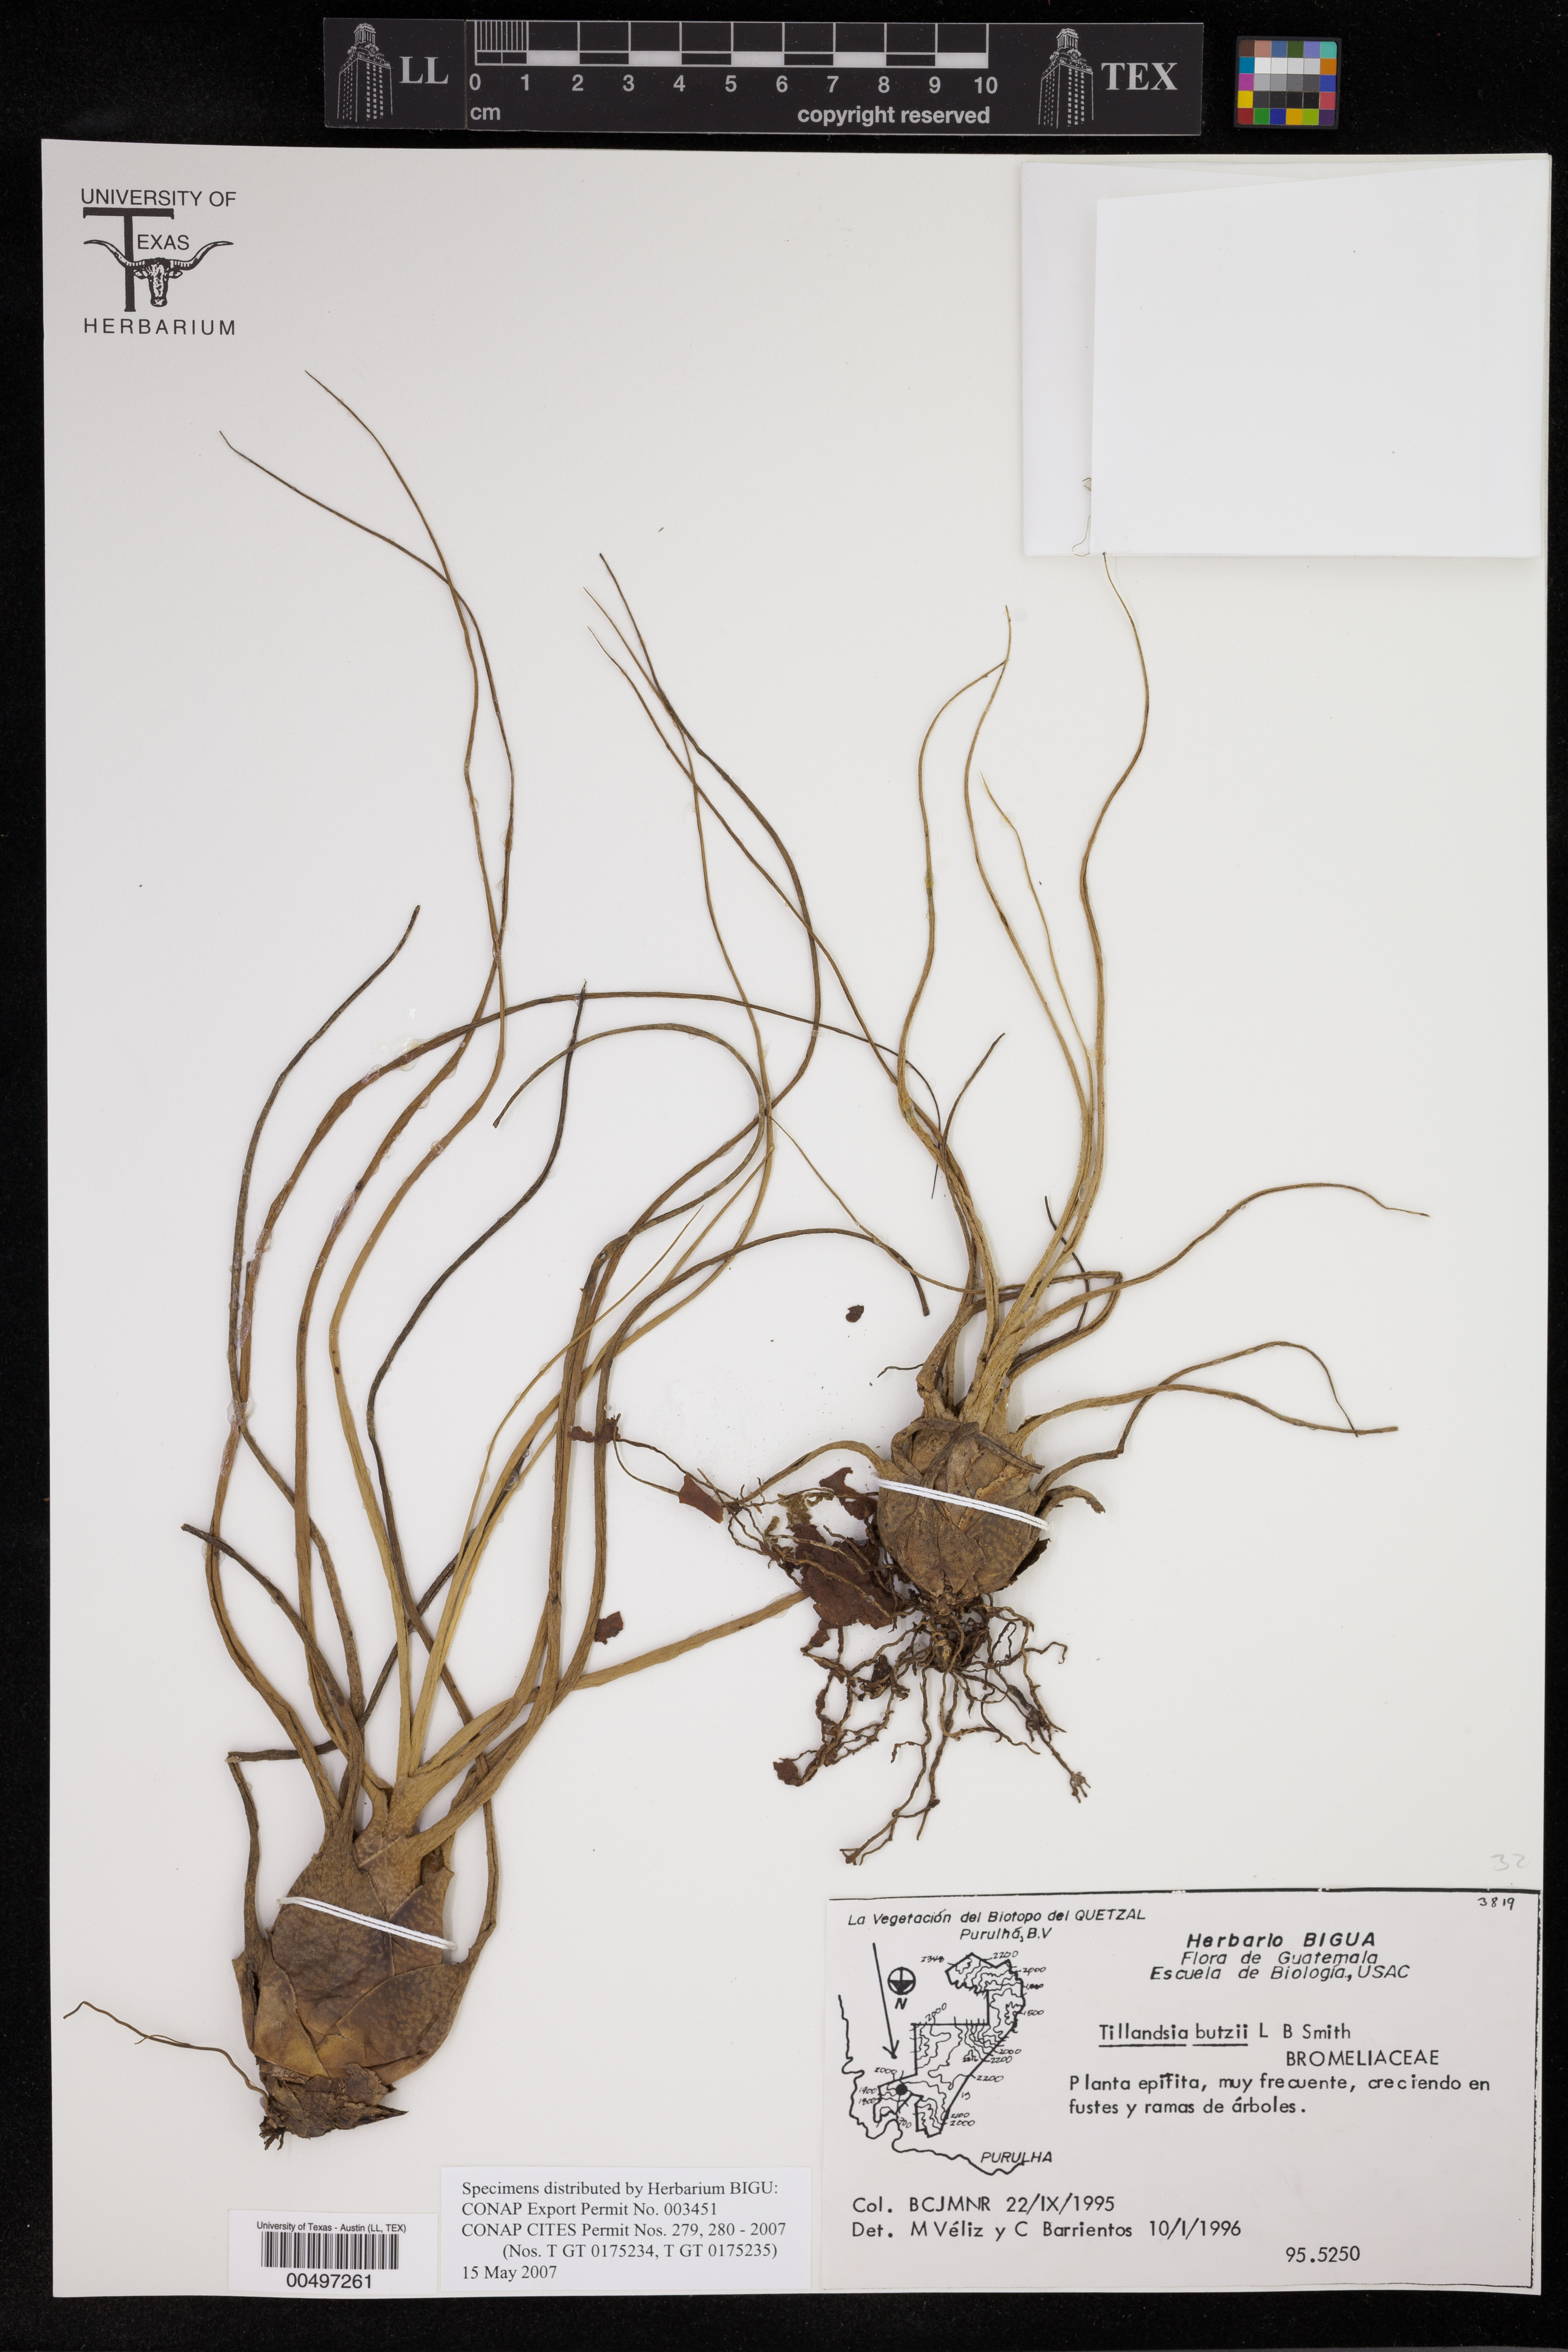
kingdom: Plantae
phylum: Tracheophyta
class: Liliopsida
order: Poales
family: Bromeliaceae
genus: Tillandsia
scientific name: Tillandsia butzii
